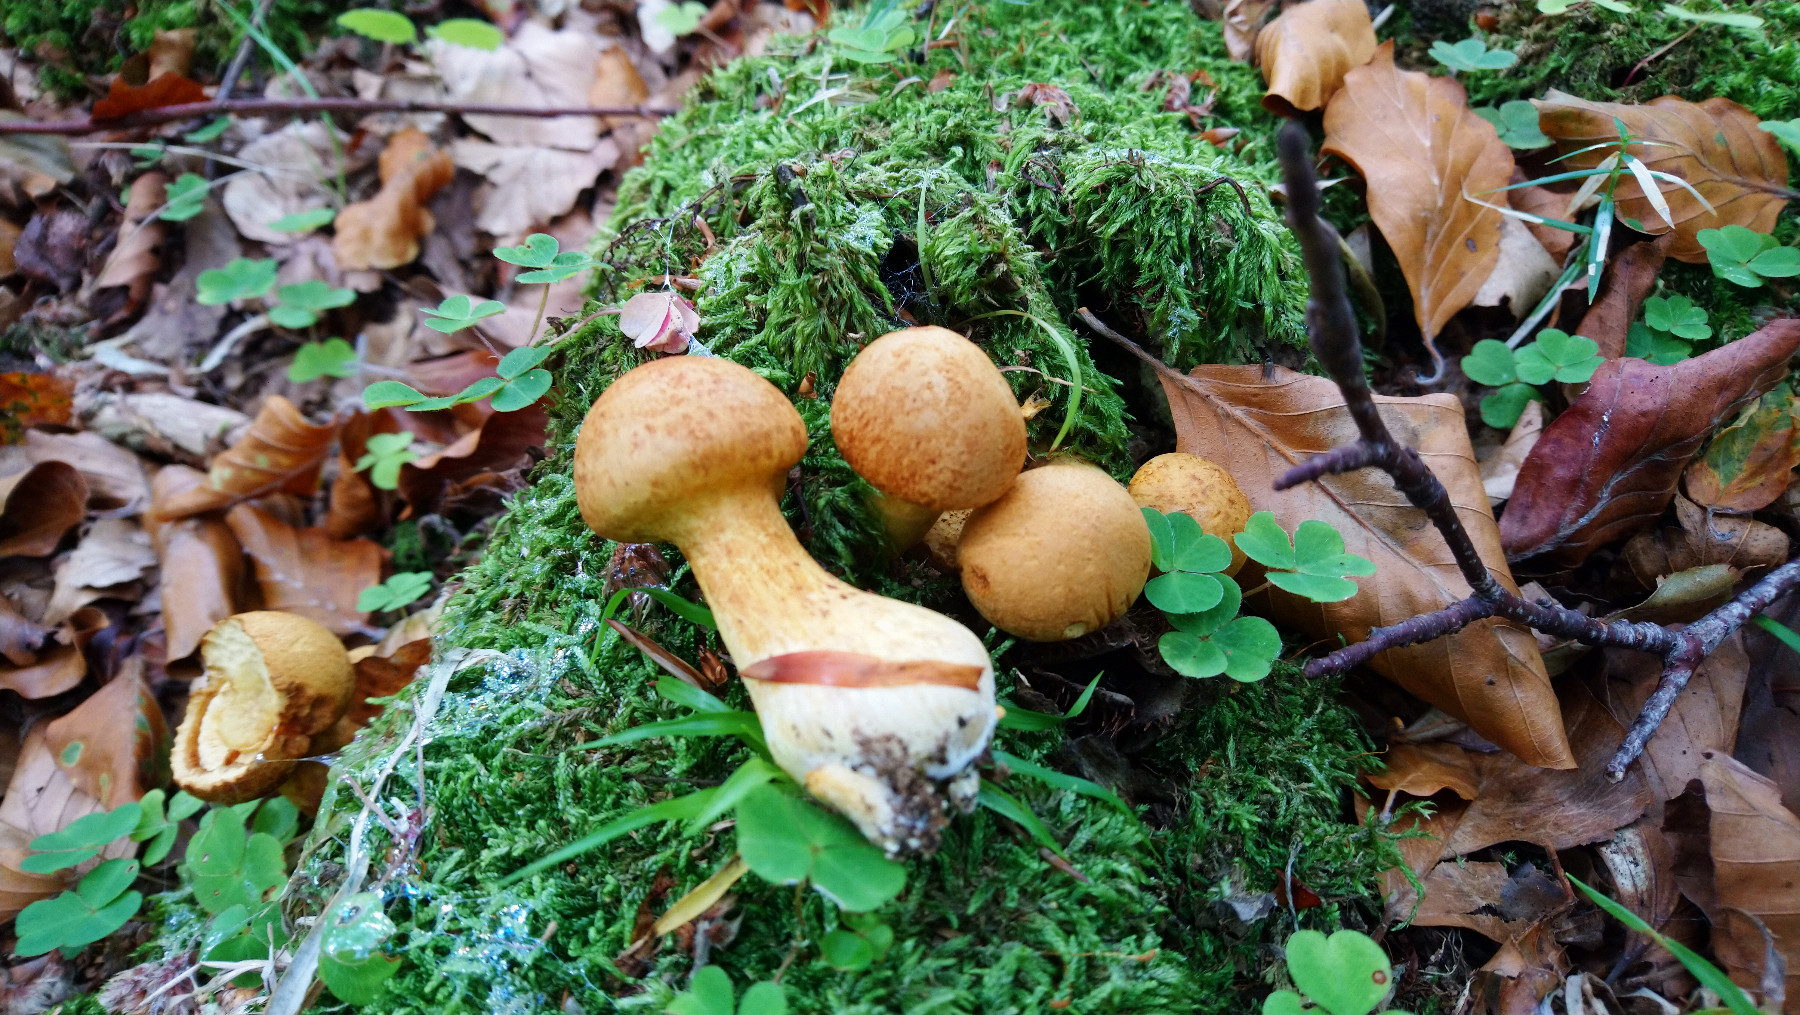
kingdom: Fungi
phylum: Basidiomycota
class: Agaricomycetes
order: Agaricales
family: Hymenogastraceae
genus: Gymnopilus
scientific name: Gymnopilus spectabilis
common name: fibret flammehat
